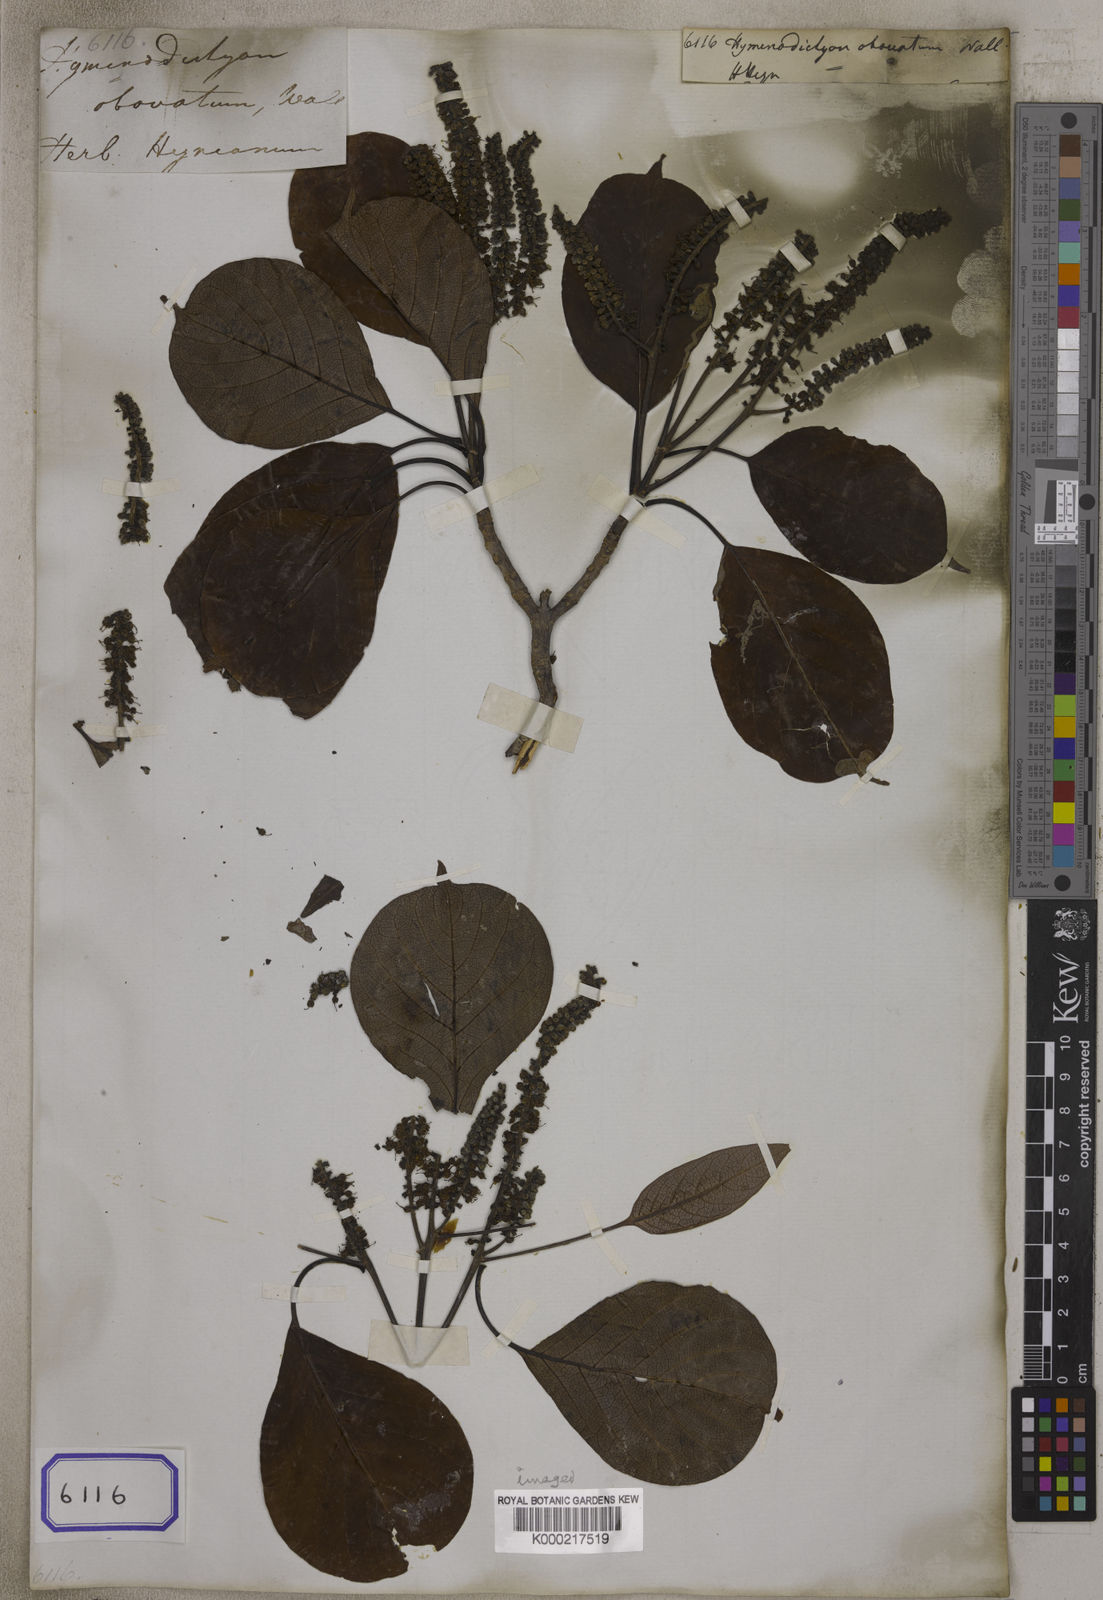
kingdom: Plantae
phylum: Tracheophyta
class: Magnoliopsida
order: Gentianales
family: Rubiaceae
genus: Hymenodictyon
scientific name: Hymenodictyon obovatum
